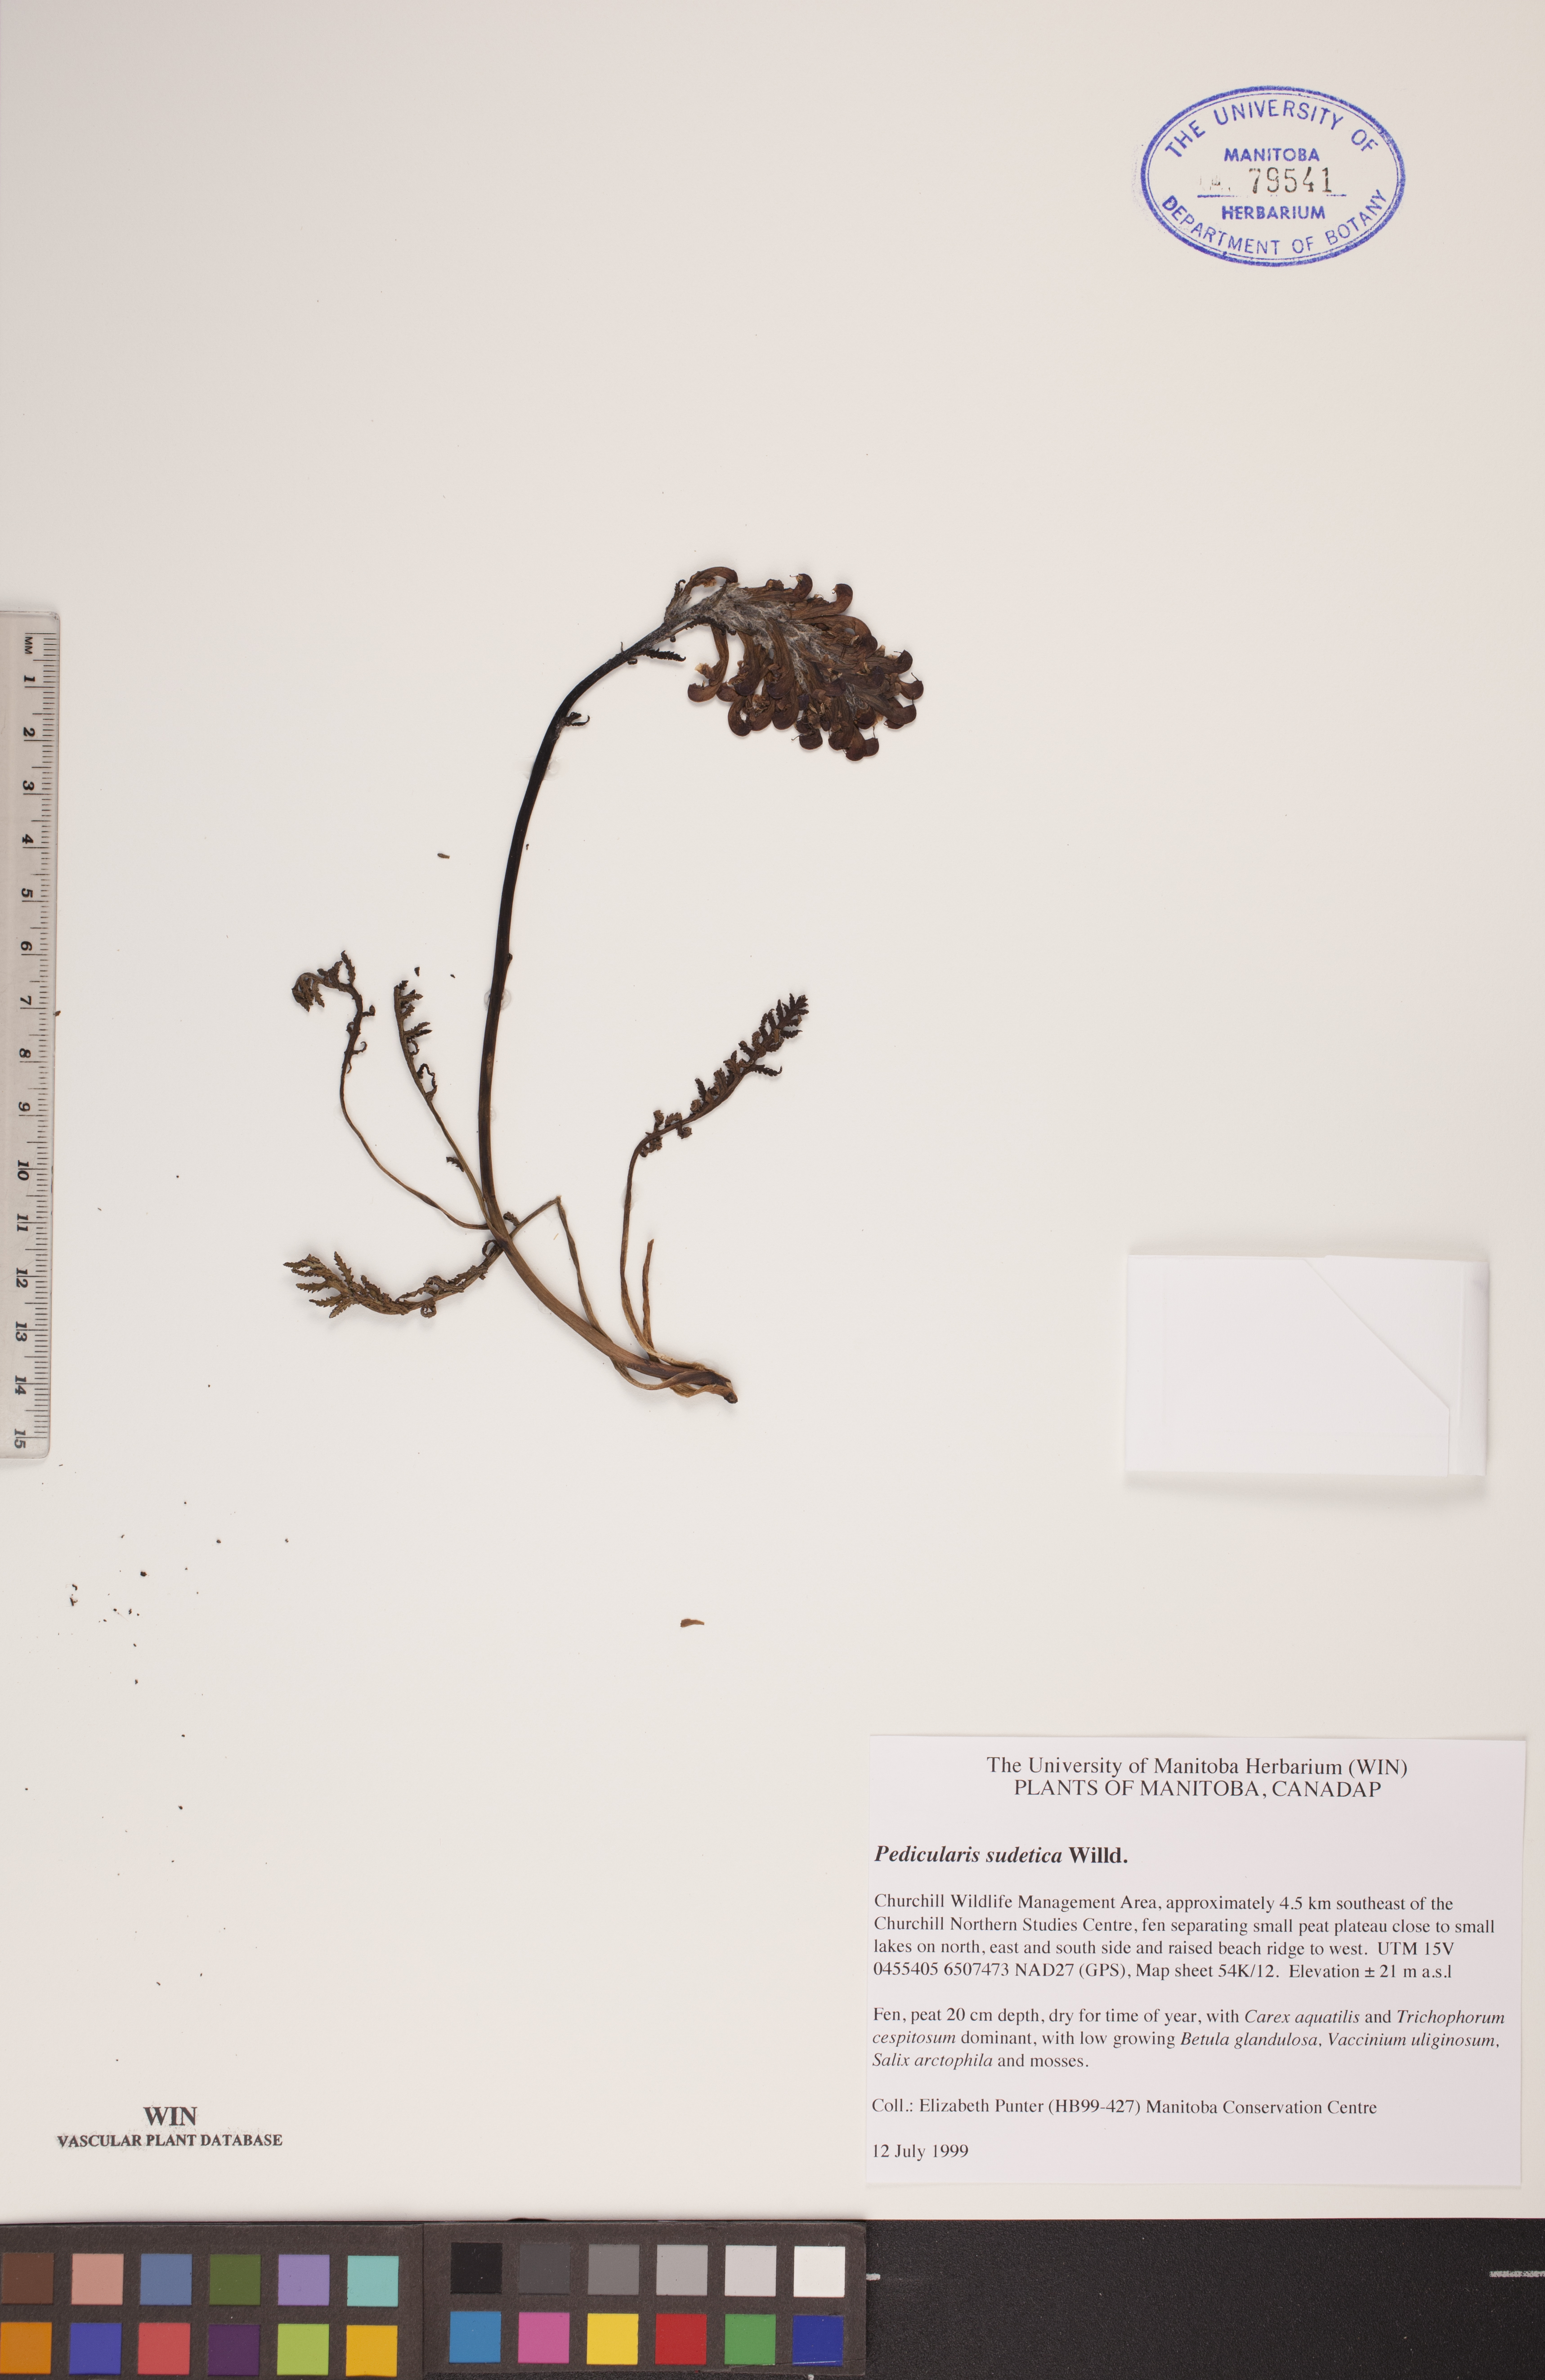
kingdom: Plantae
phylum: Tracheophyta
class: Magnoliopsida
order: Lamiales
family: Orobanchaceae
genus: Pedicularis
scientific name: Pedicularis sudetica
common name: Sudeten lousewort
